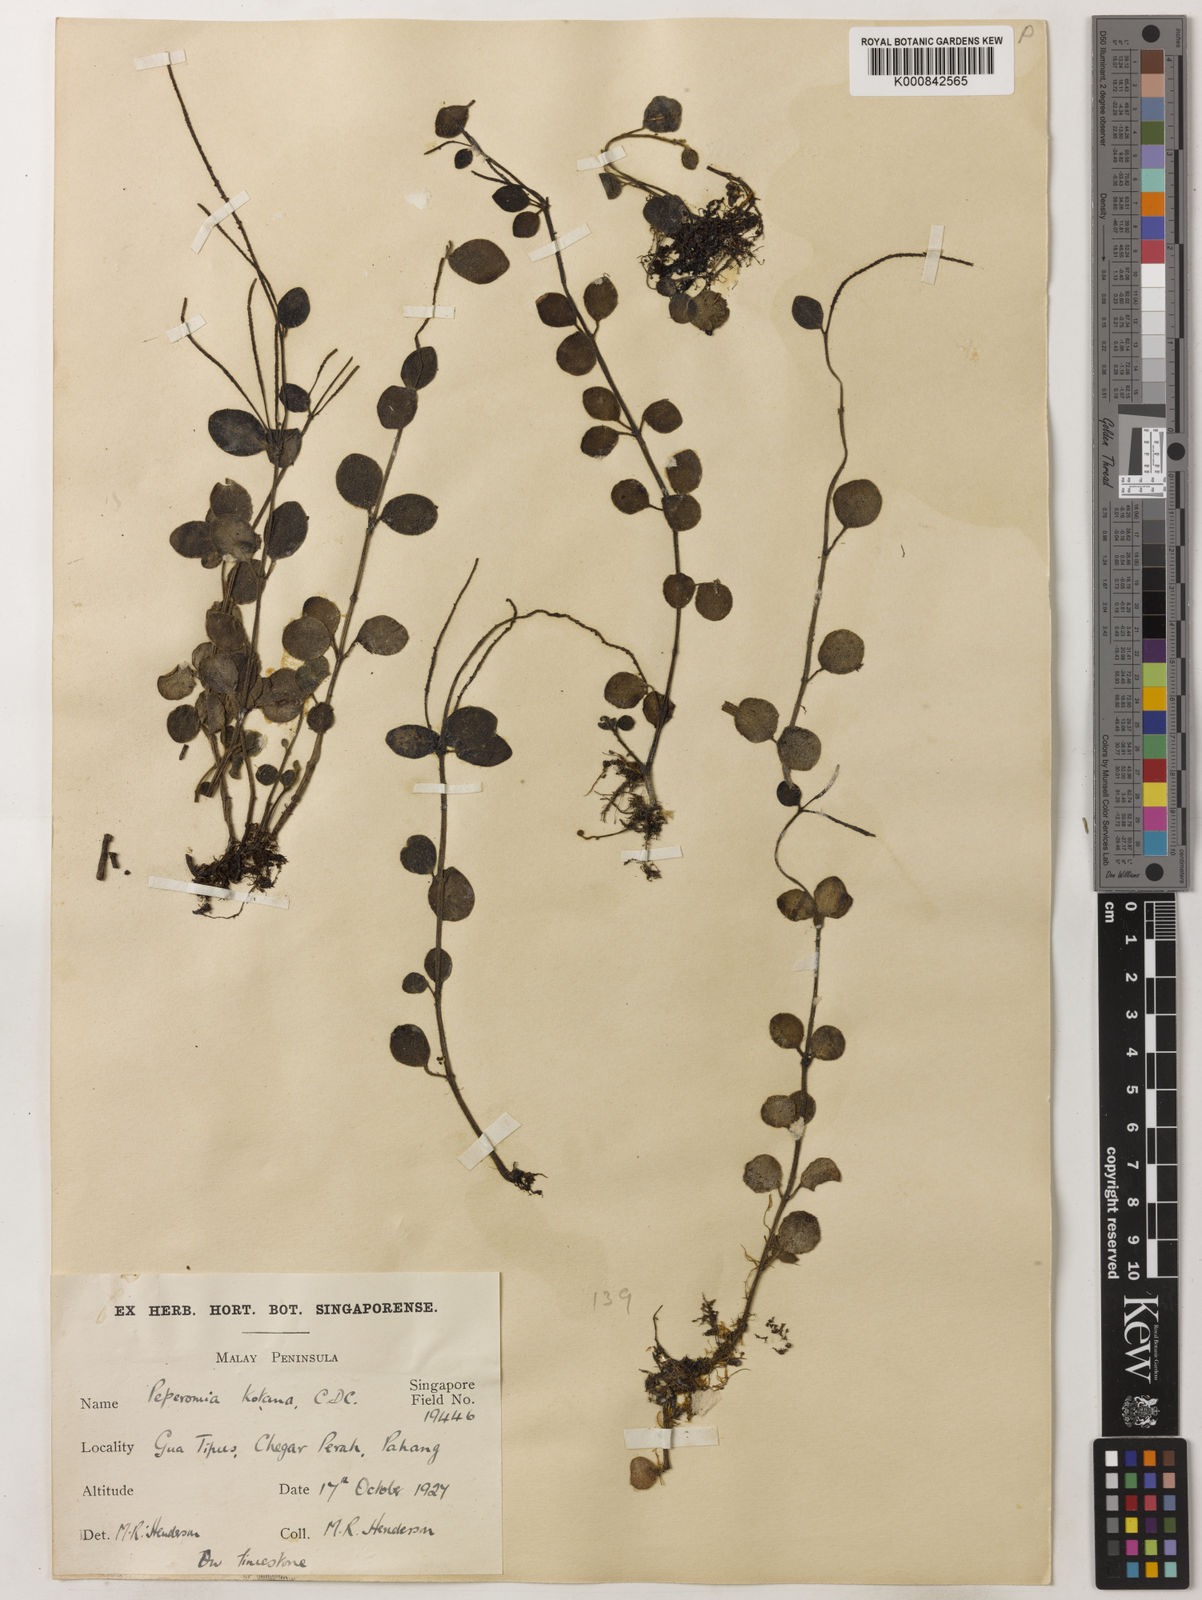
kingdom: Plantae
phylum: Tracheophyta
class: Magnoliopsida
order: Piperales
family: Piperaceae
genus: Peperomia
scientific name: Peperomia kotana
